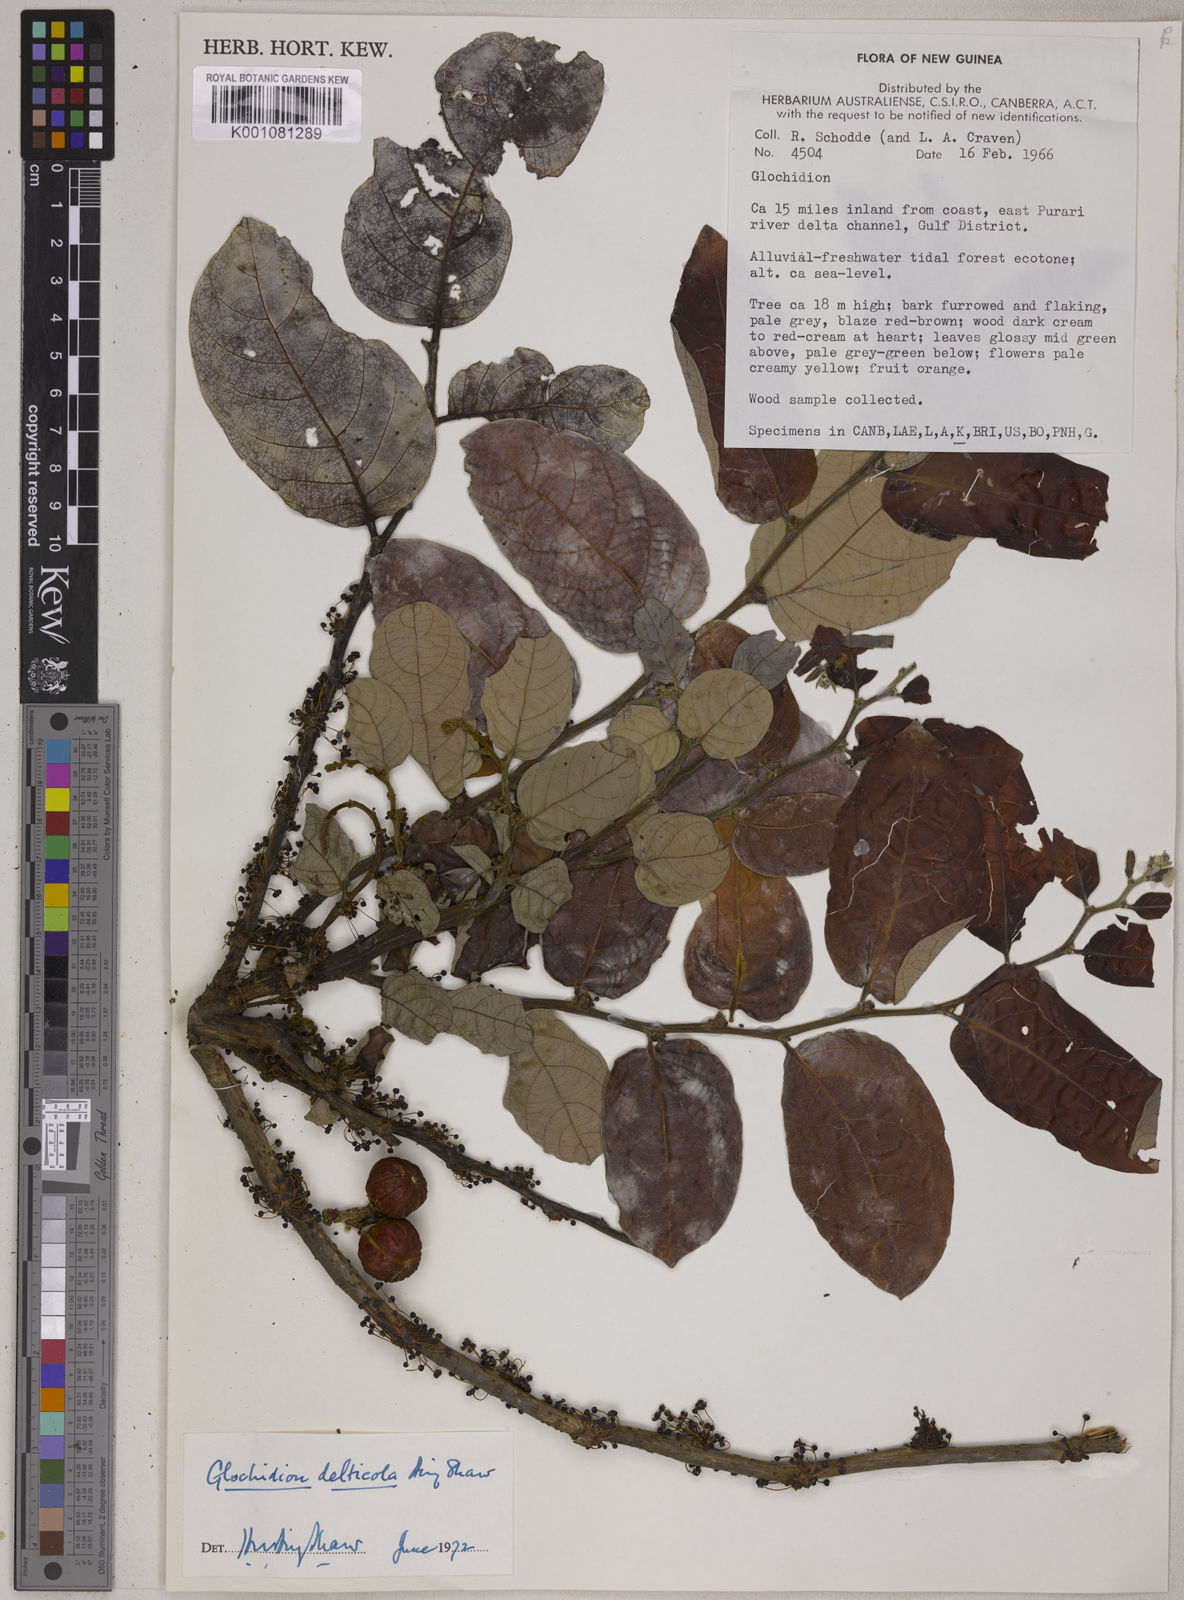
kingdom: Plantae
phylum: Tracheophyta
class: Magnoliopsida
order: Malpighiales
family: Phyllanthaceae
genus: Glochidion
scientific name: Glochidion delticola
